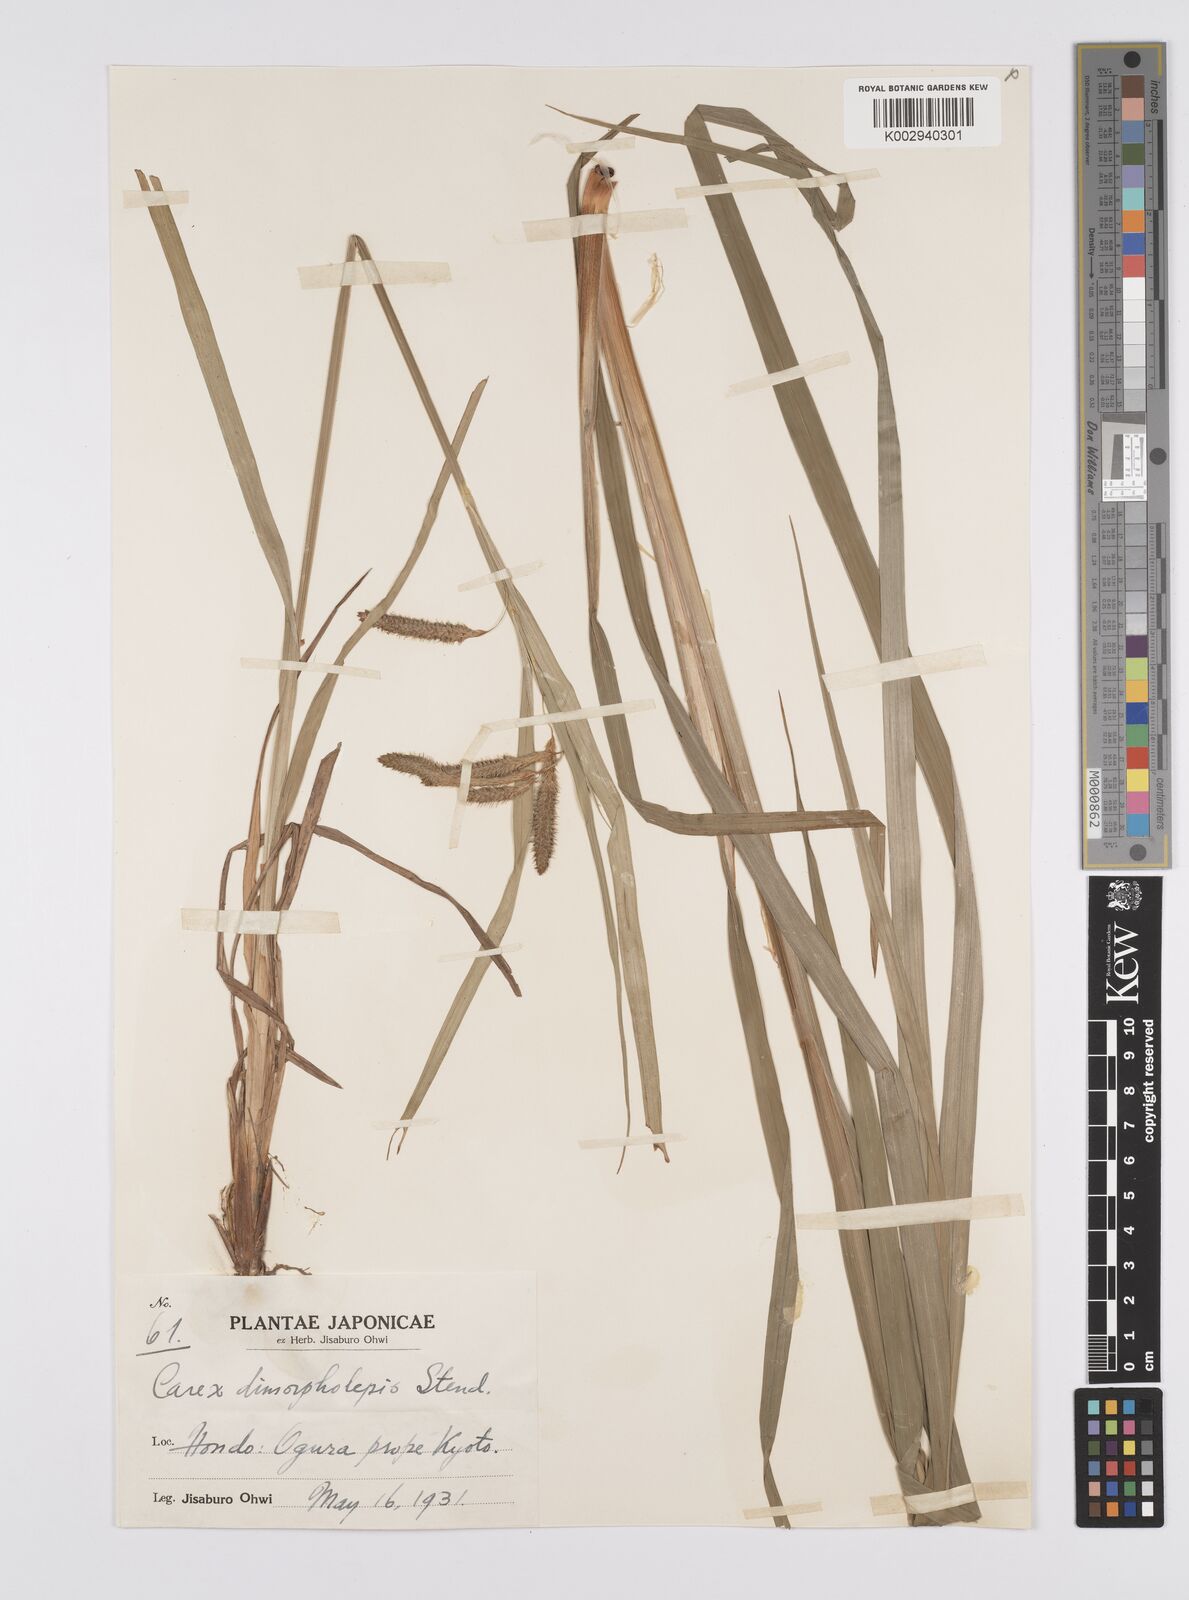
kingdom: Plantae
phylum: Tracheophyta
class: Liliopsida
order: Poales
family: Cyperaceae
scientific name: Cyperaceae
